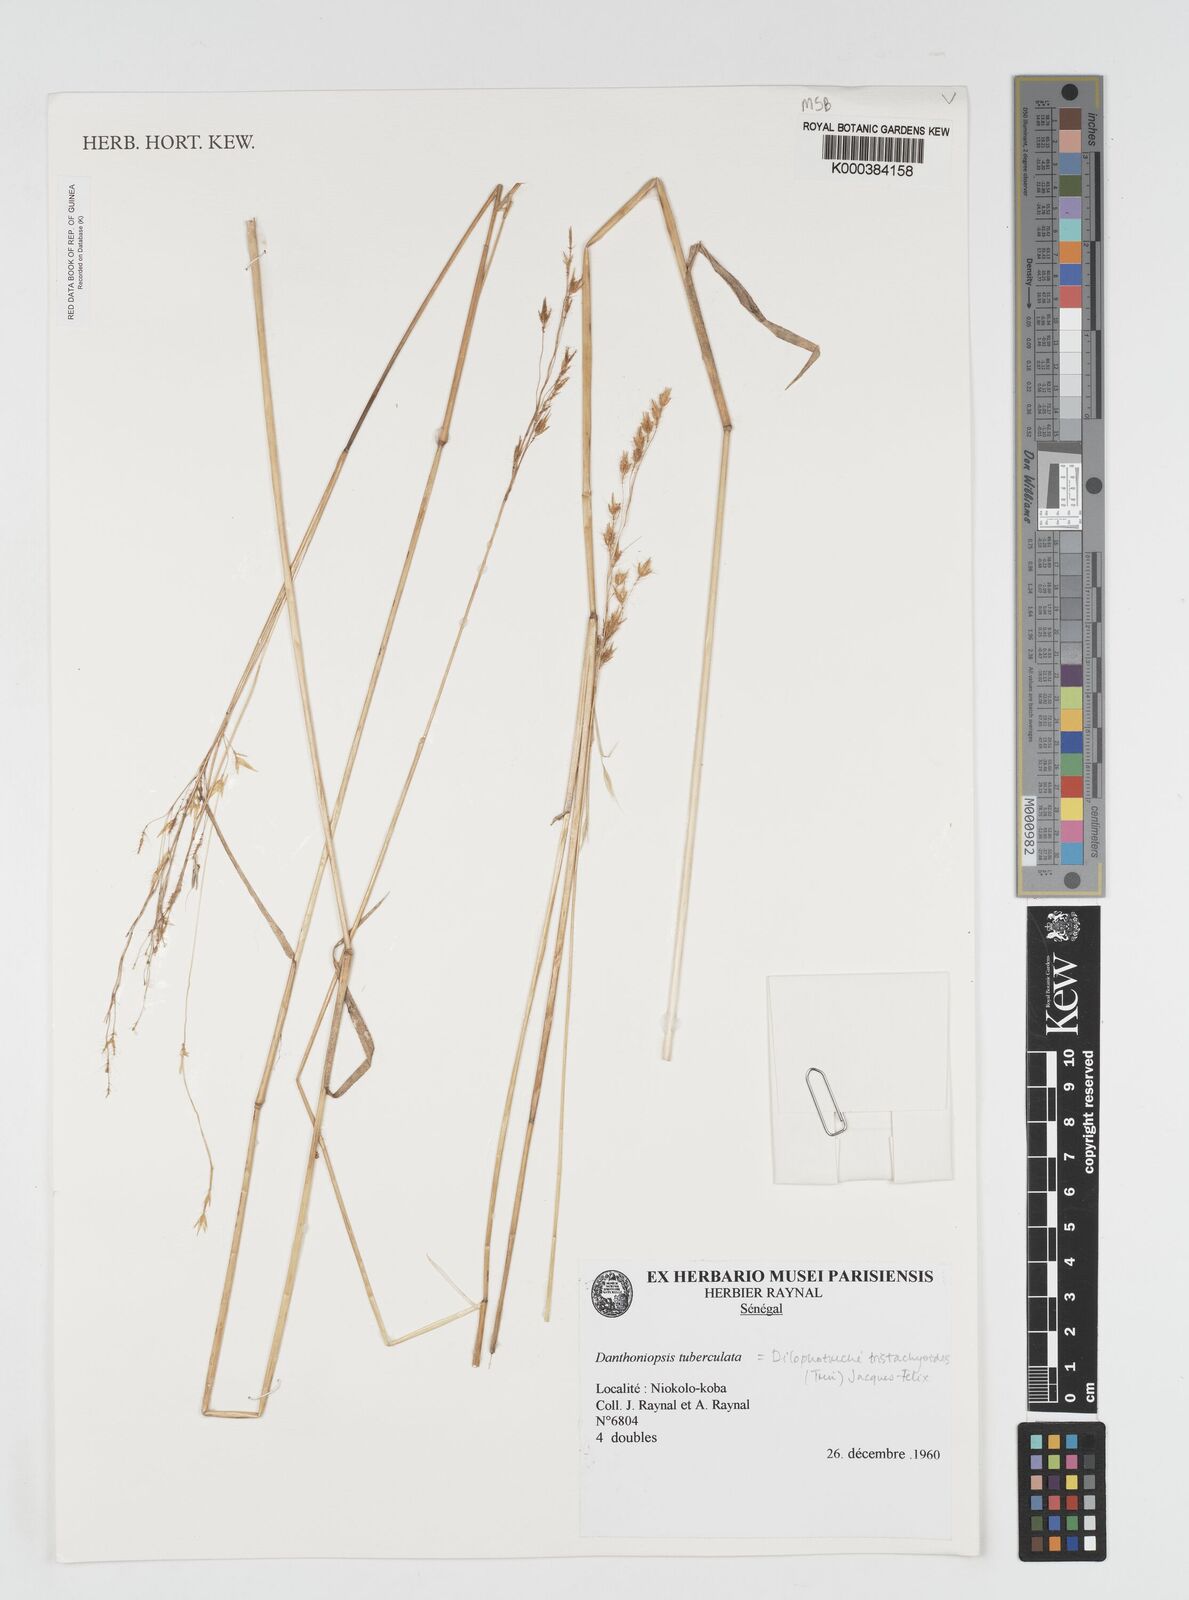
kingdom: Plantae
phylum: Tracheophyta
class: Liliopsida
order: Poales
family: Poaceae
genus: Dilophotriche
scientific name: Dilophotriche
